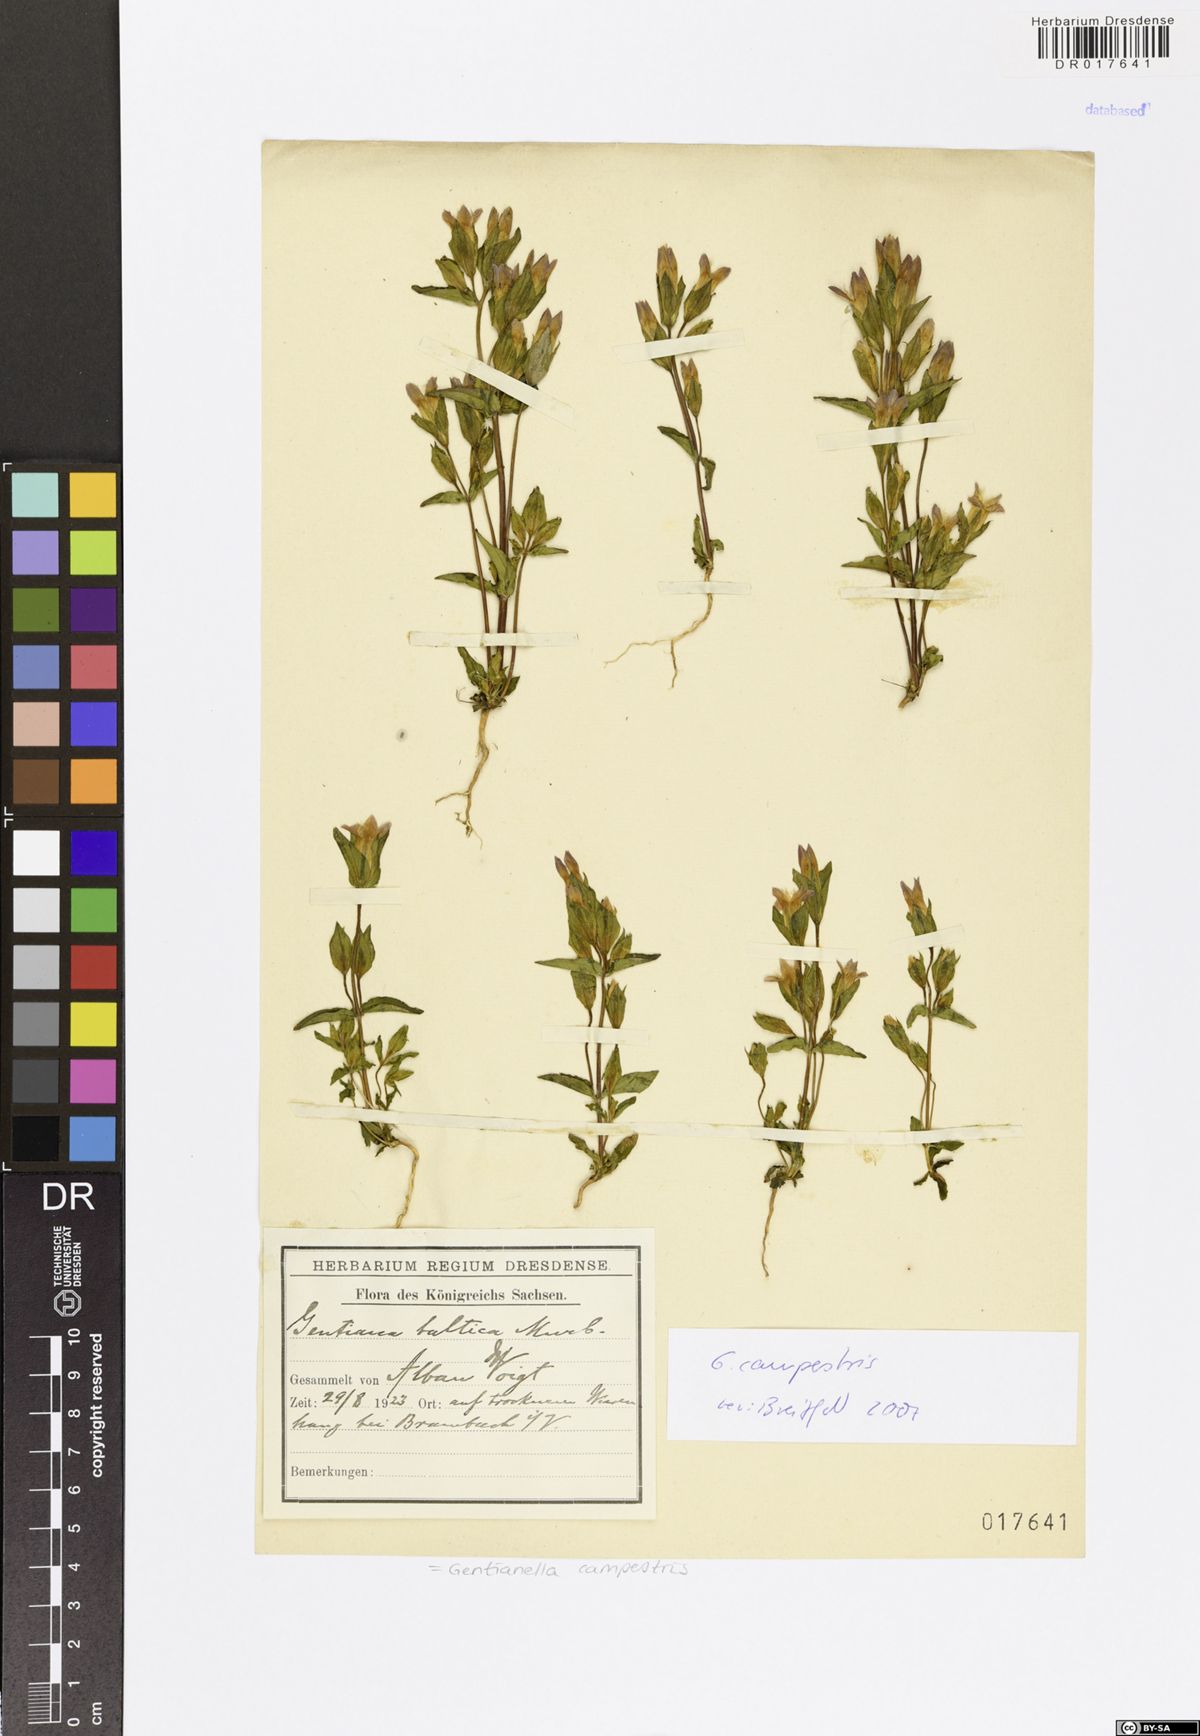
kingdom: Plantae
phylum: Tracheophyta
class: Magnoliopsida
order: Gentianales
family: Gentianaceae
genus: Gentianella
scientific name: Gentianella campestris
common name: Field gentian
